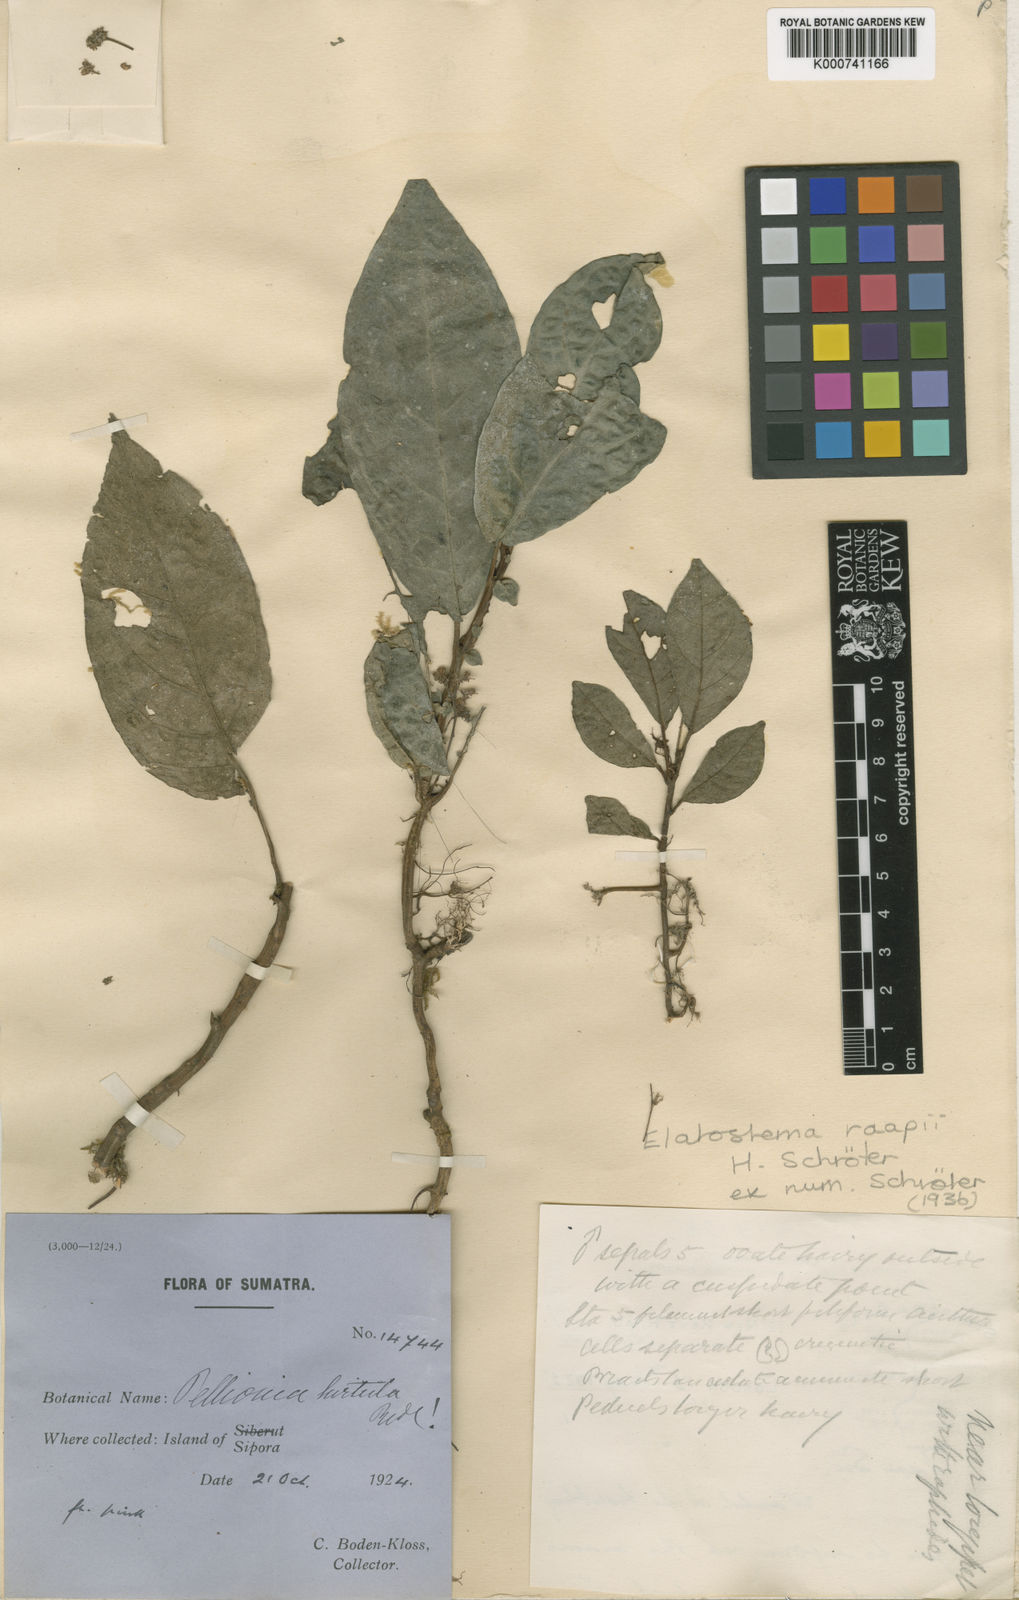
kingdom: Plantae
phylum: Tracheophyta
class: Magnoliopsida
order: Rosales
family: Urticaceae
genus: Elatostema
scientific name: Elatostema raapii
